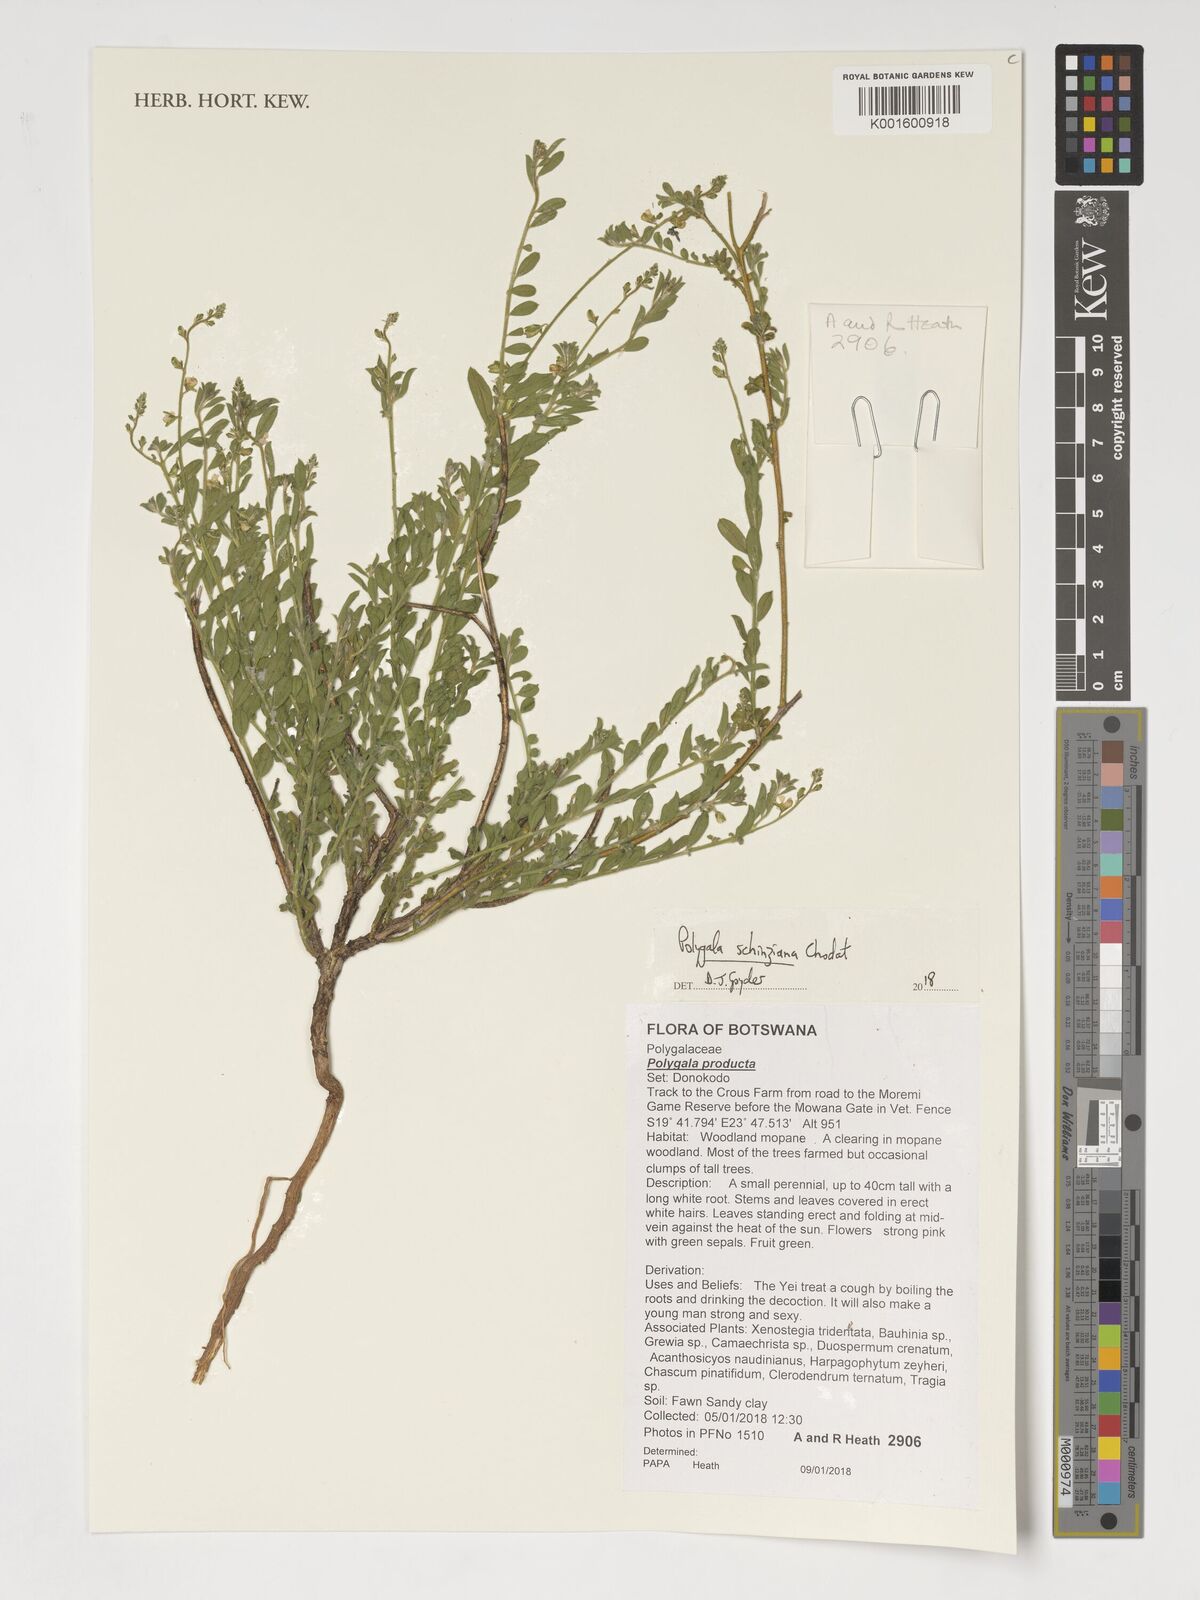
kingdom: Plantae
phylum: Tracheophyta
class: Magnoliopsida
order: Fabales
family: Polygalaceae
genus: Polygala
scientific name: Polygala schinziana
